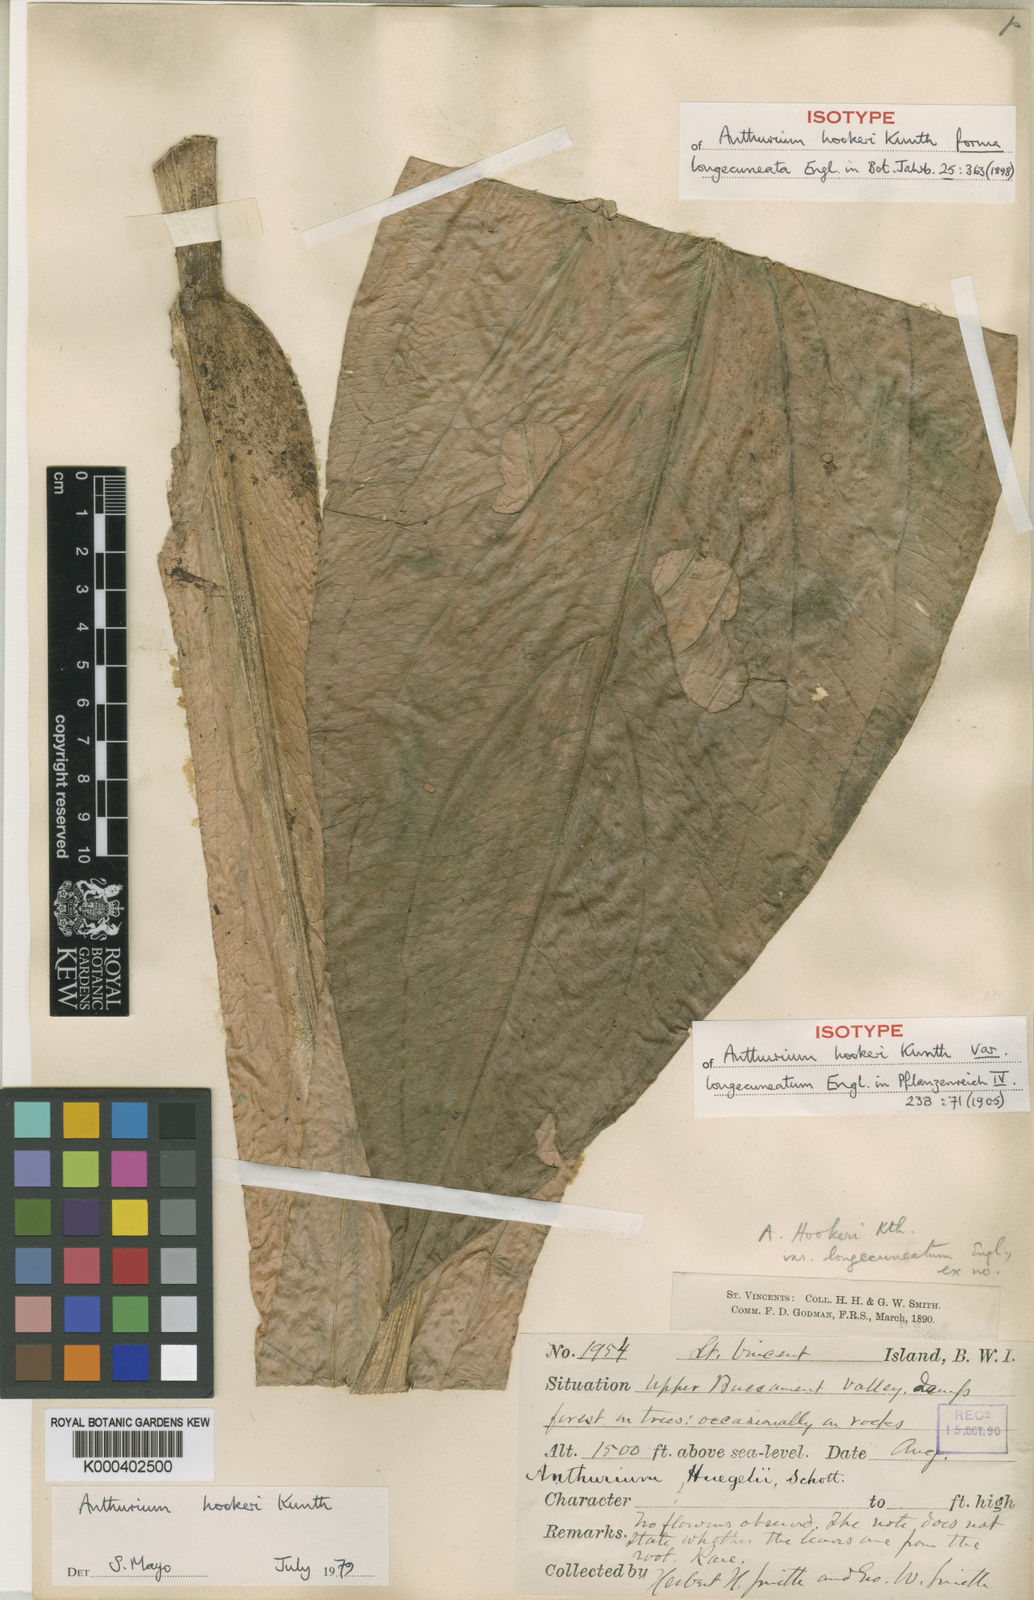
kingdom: Plantae
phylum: Tracheophyta
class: Liliopsida
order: Alismatales
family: Araceae
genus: Anthurium
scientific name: Anthurium hookeri
